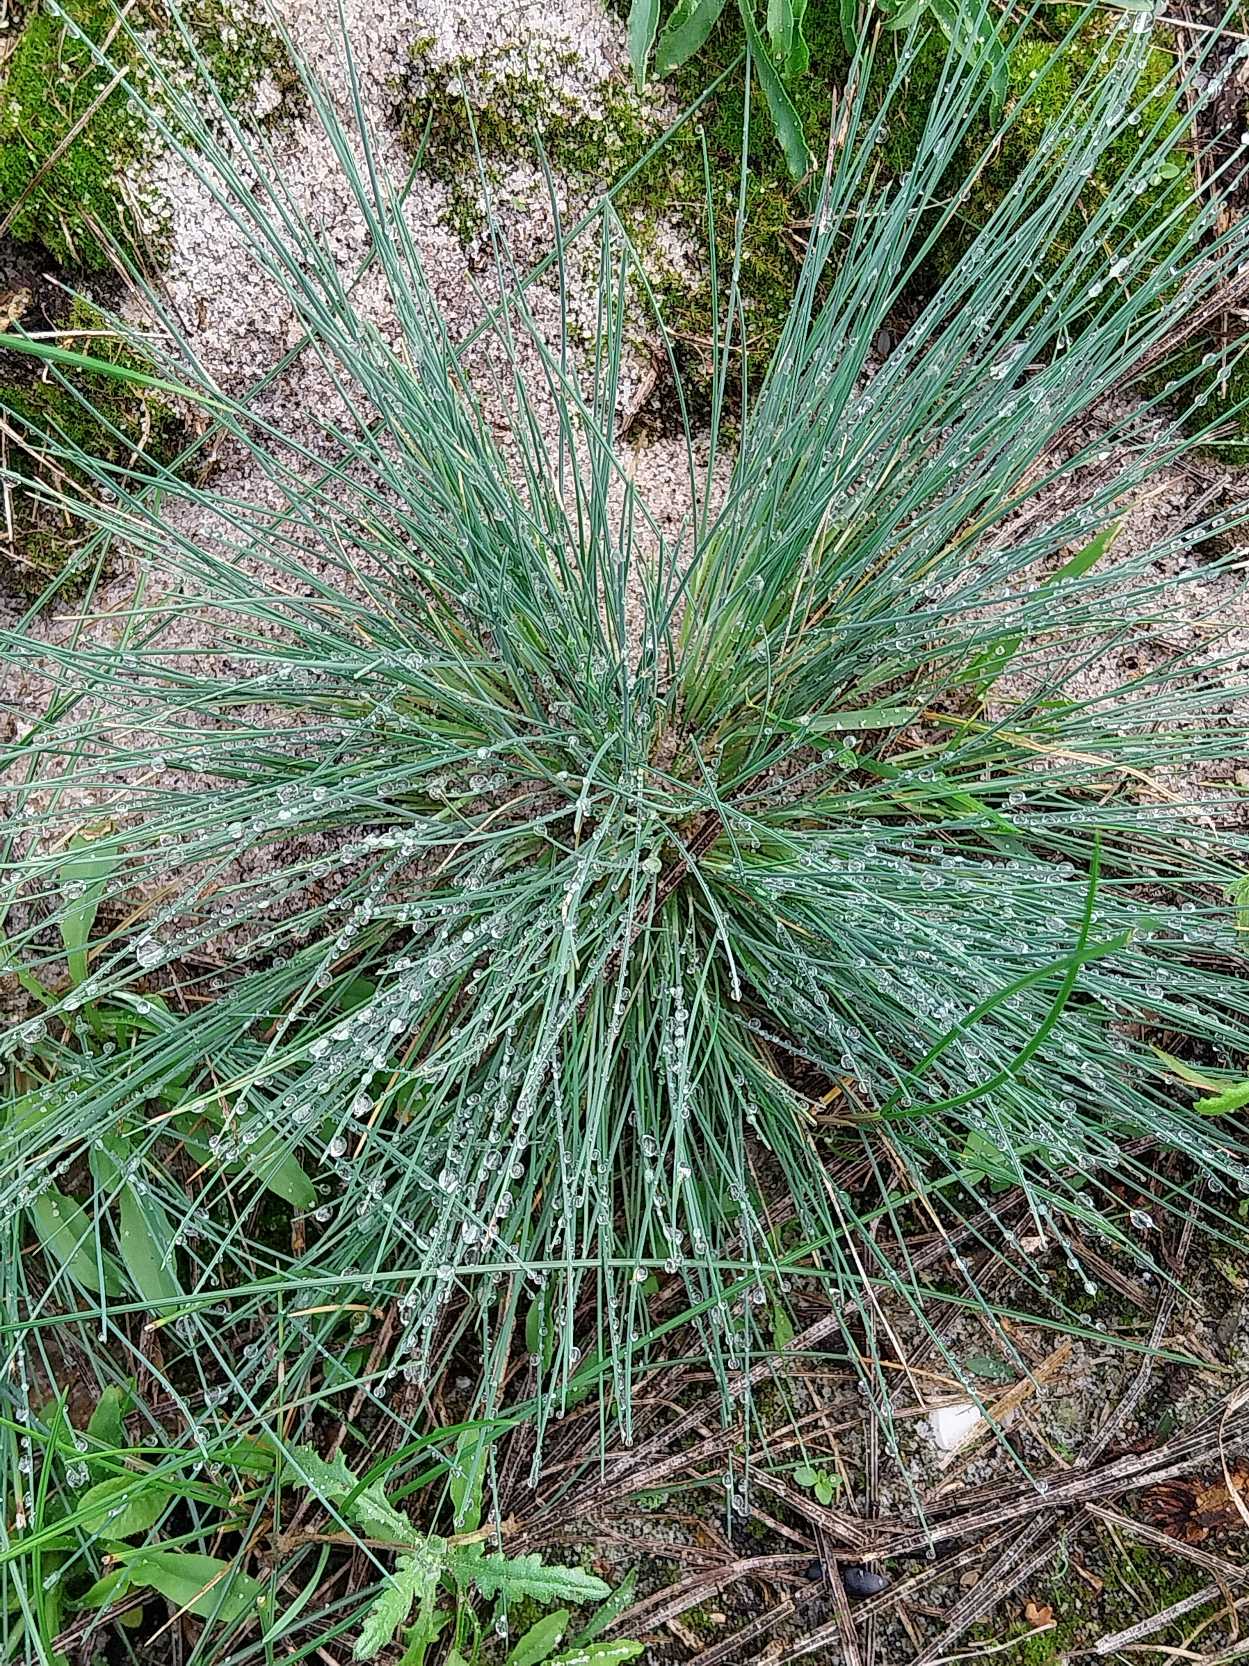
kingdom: Plantae
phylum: Tracheophyta
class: Liliopsida
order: Poales
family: Poaceae
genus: Corynephorus
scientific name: Corynephorus canescens
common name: Sandskæg
